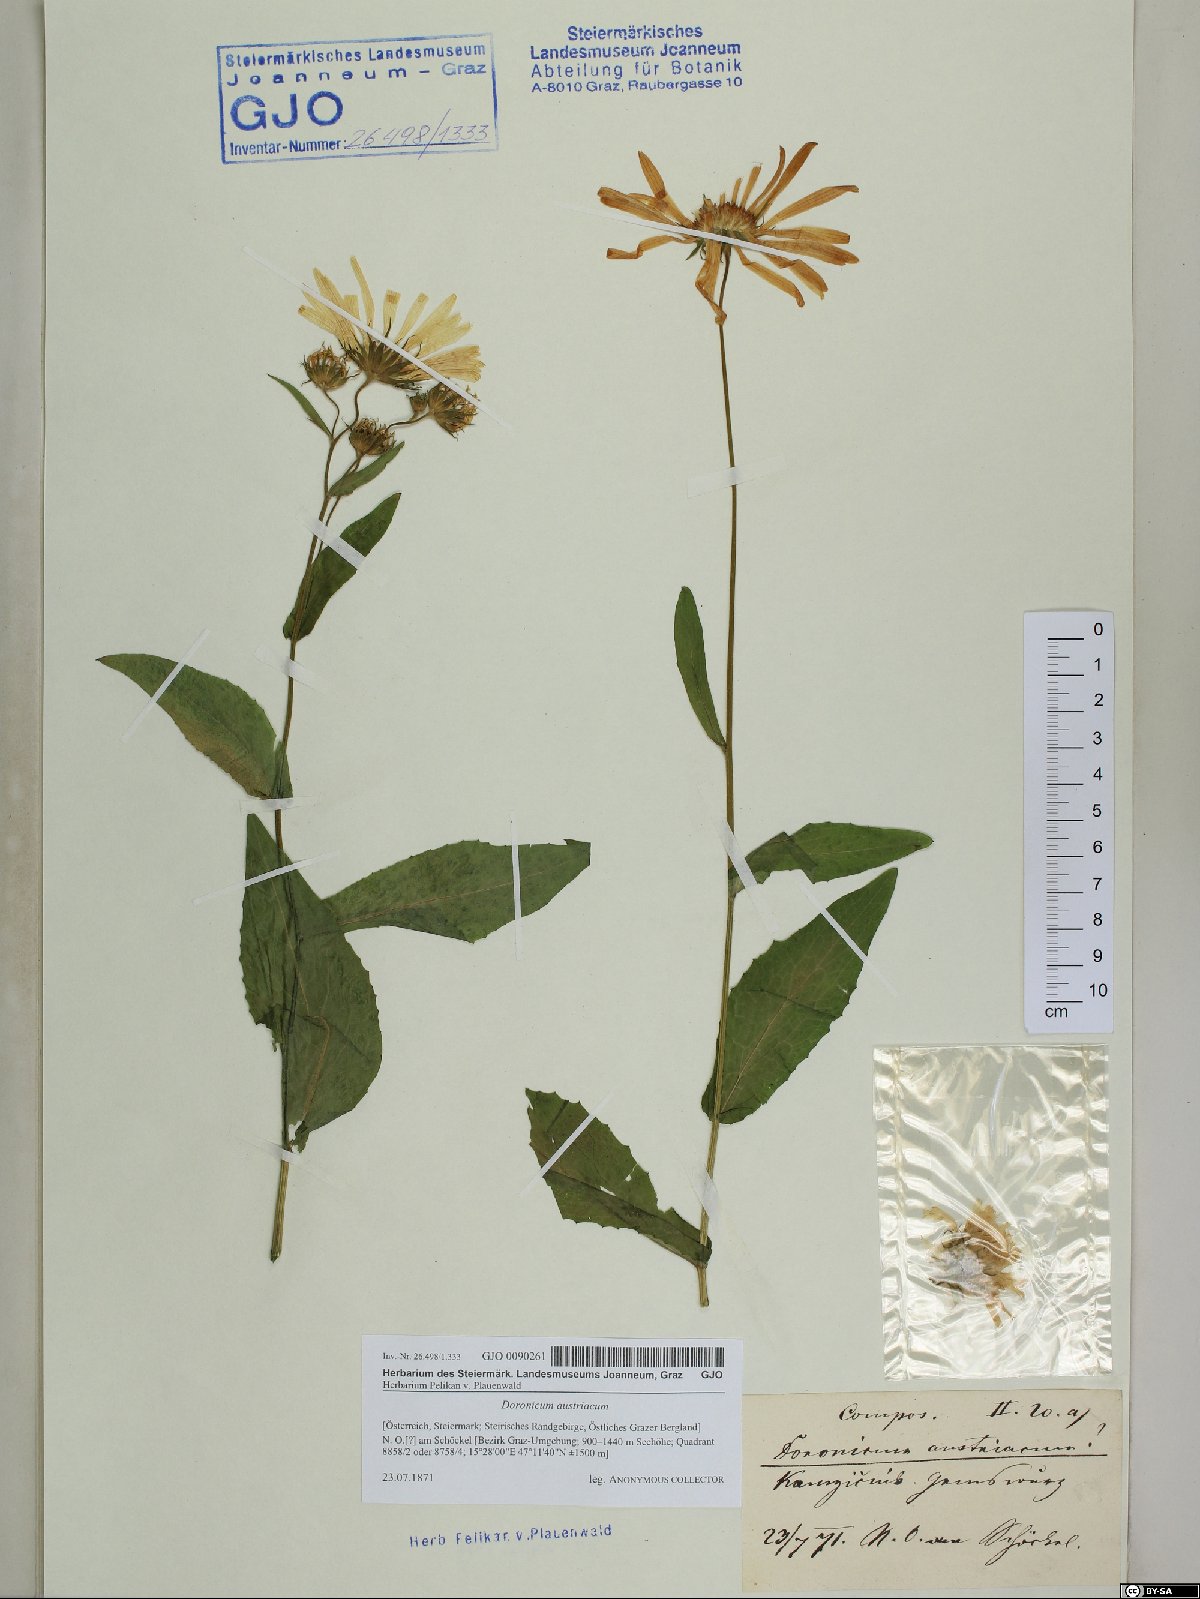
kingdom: Plantae
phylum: Tracheophyta
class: Magnoliopsida
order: Asterales
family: Asteraceae
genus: Doronicum
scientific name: Doronicum austriacum
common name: Austrian leopard's-bane
